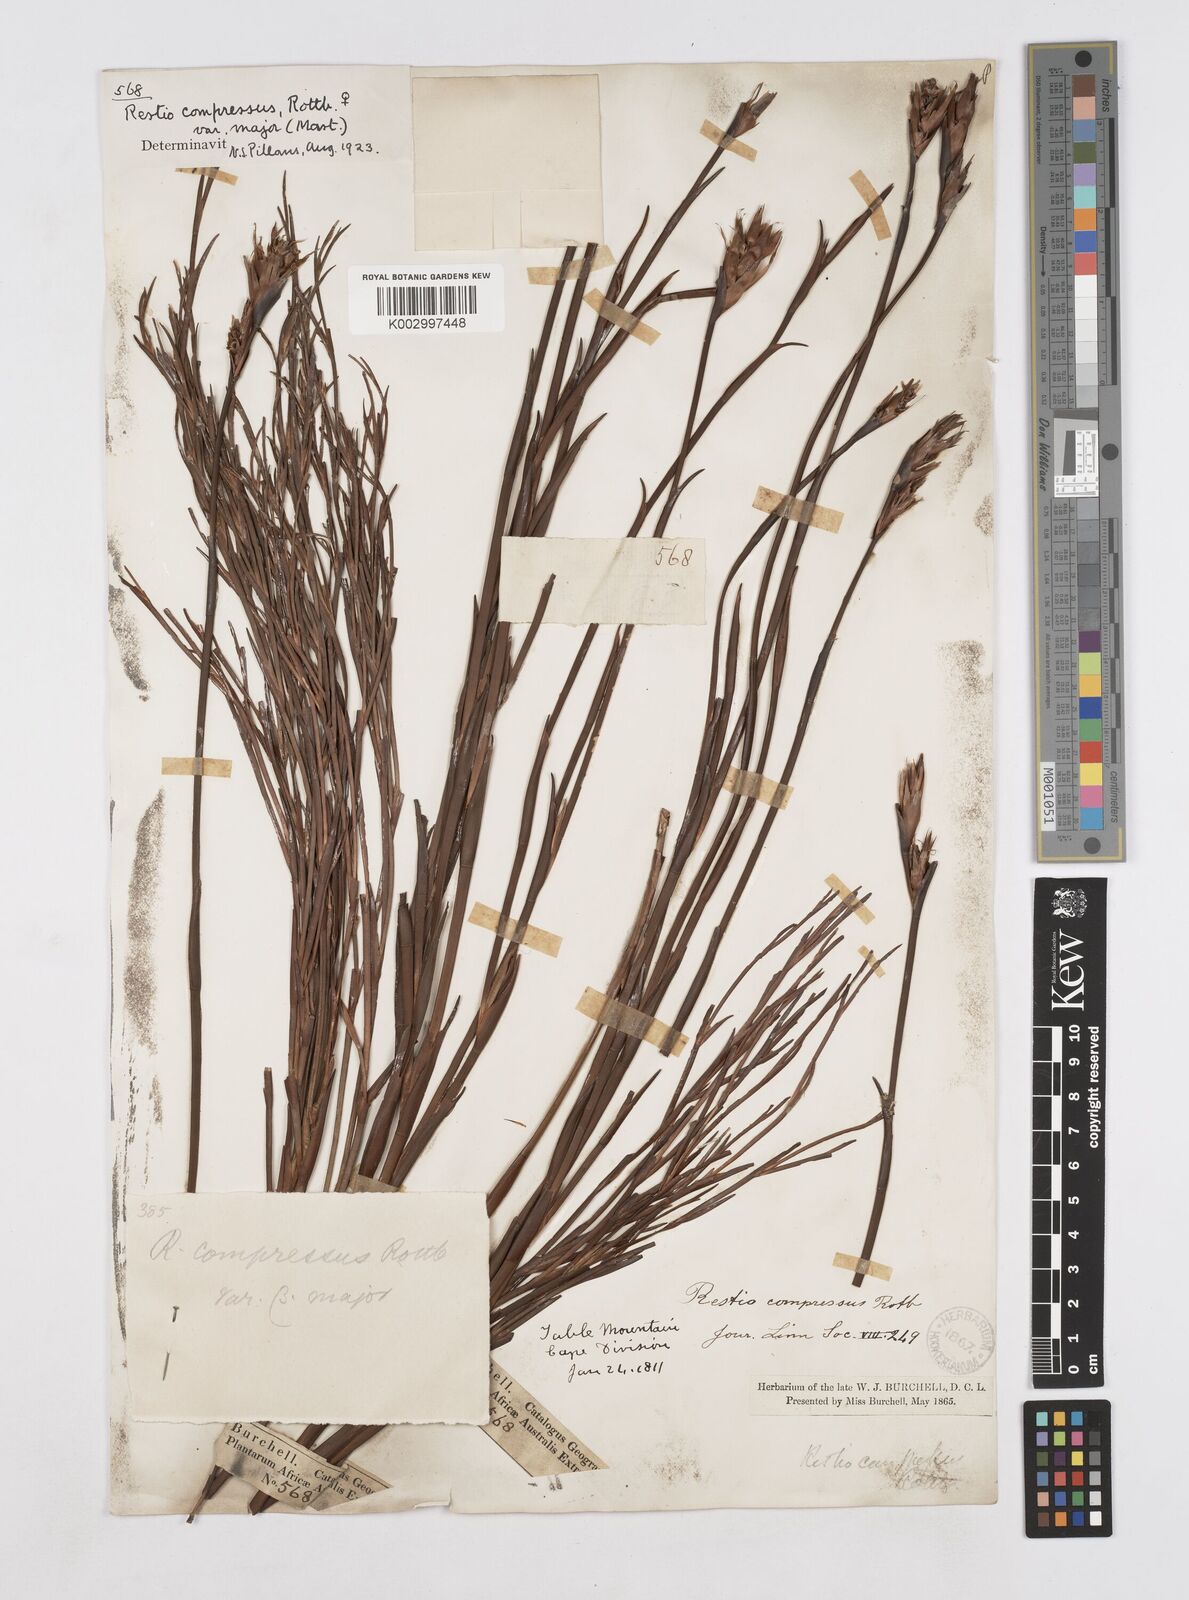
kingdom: Plantae
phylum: Tracheophyta
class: Liliopsida
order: Poales
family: Restionaceae
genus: Platycaulos
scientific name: Platycaulos major
